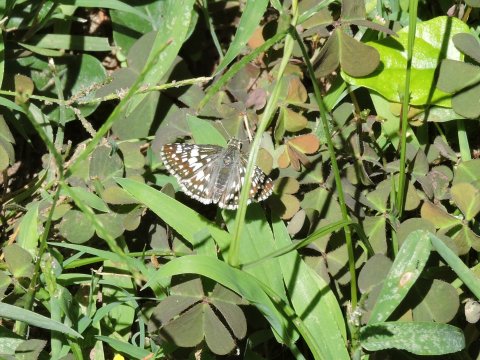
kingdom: Animalia
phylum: Arthropoda
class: Insecta
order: Lepidoptera
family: Hesperiidae
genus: Pyrgus
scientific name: Pyrgus
